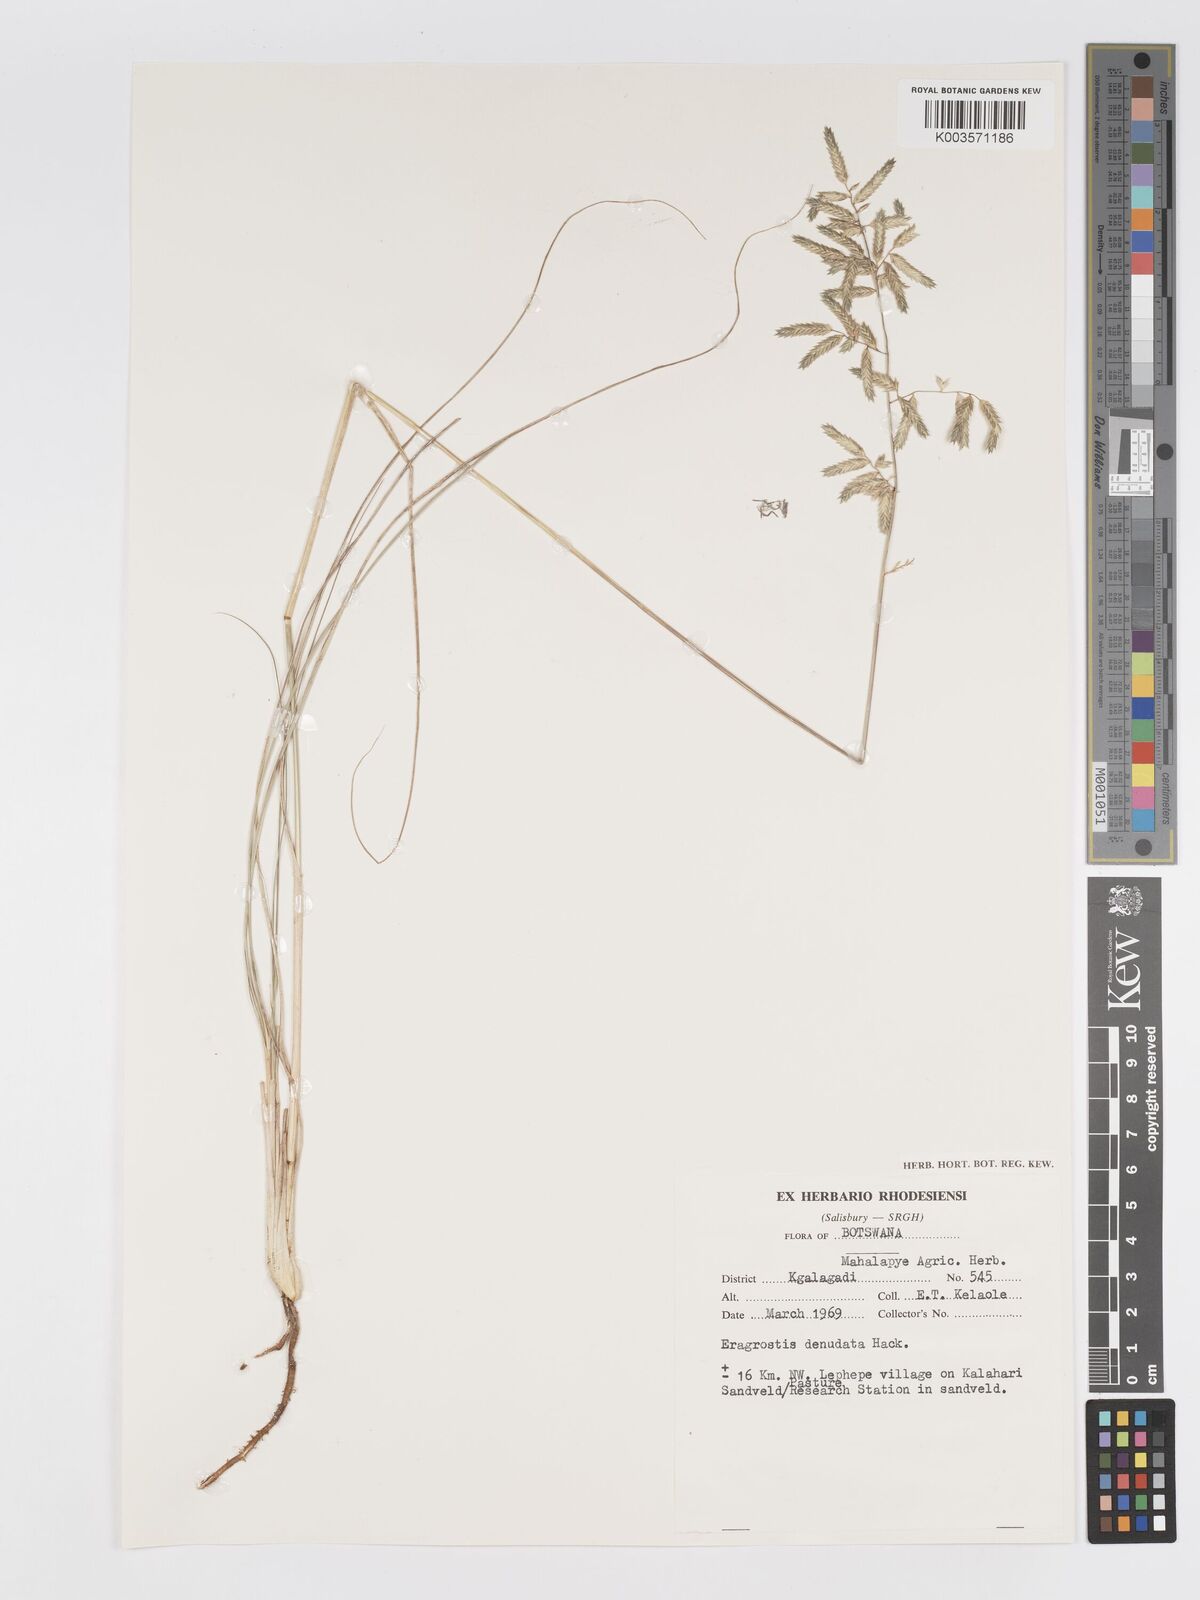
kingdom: Plantae
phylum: Tracheophyta
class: Liliopsida
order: Poales
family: Poaceae
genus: Eragrostis
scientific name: Eragrostis nindensis
